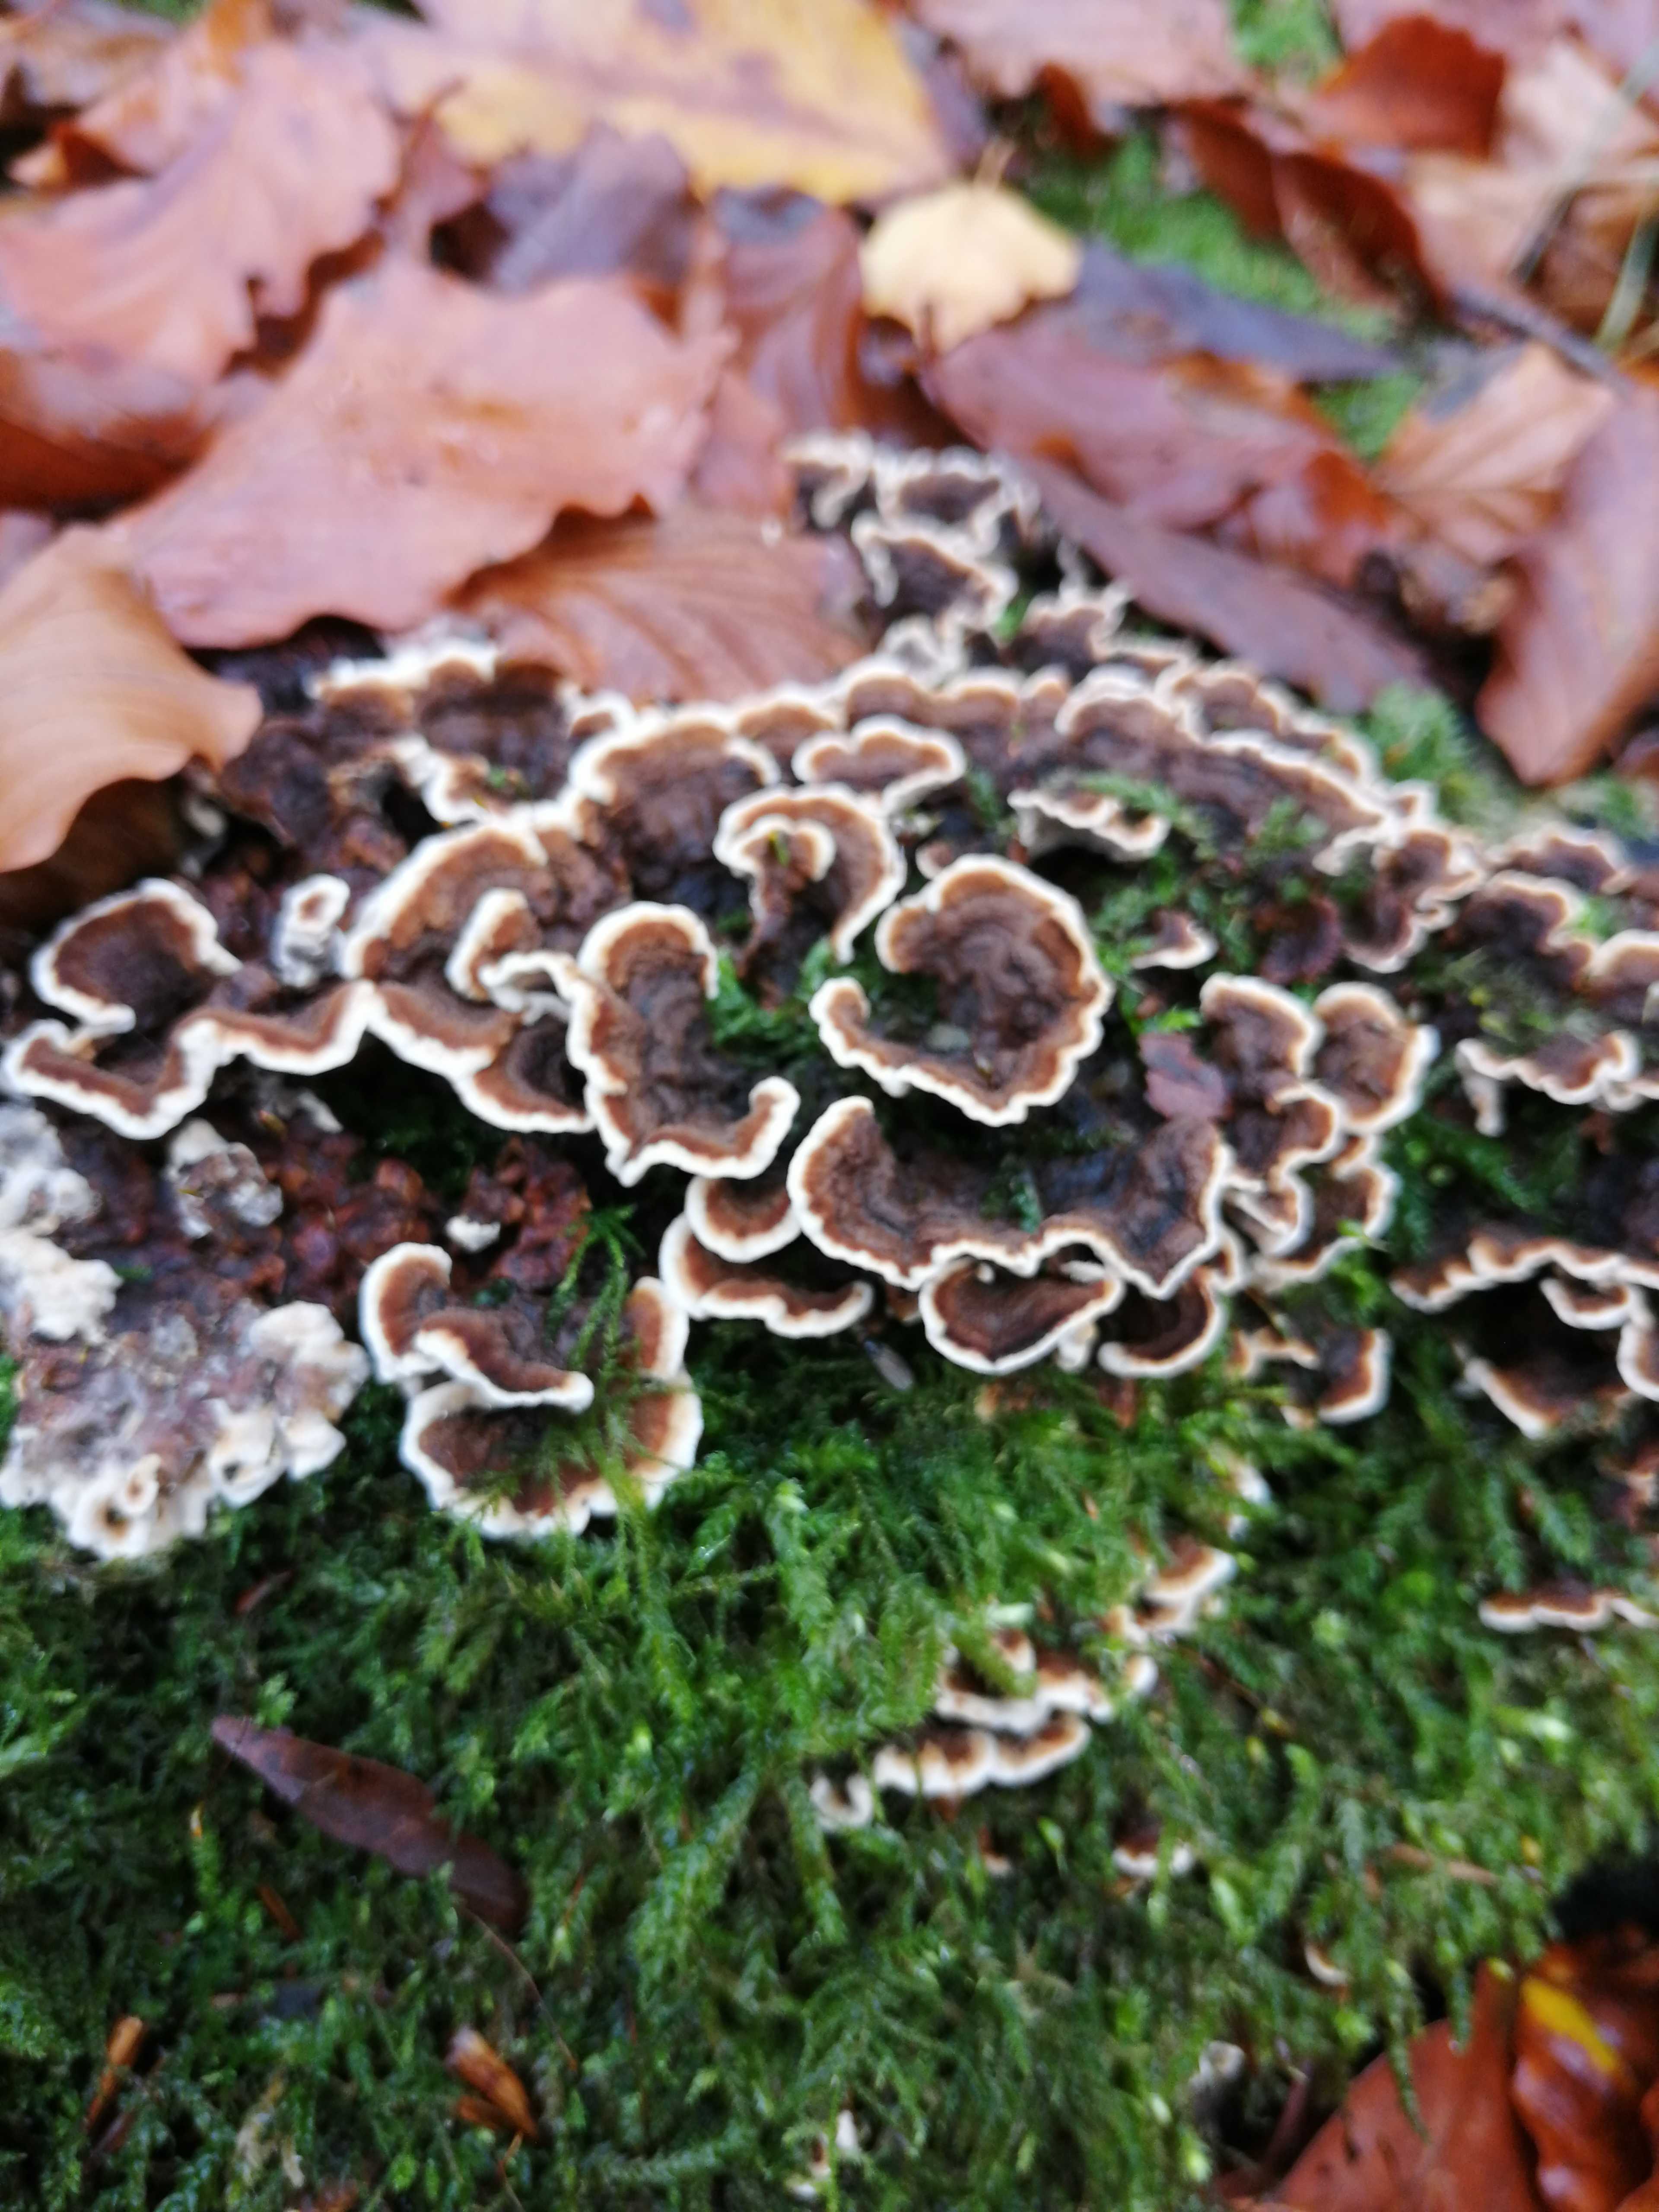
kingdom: Fungi
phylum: Basidiomycota
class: Agaricomycetes
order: Polyporales
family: Polyporaceae
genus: Trametes
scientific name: Trametes versicolor
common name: broget læderporesvamp
